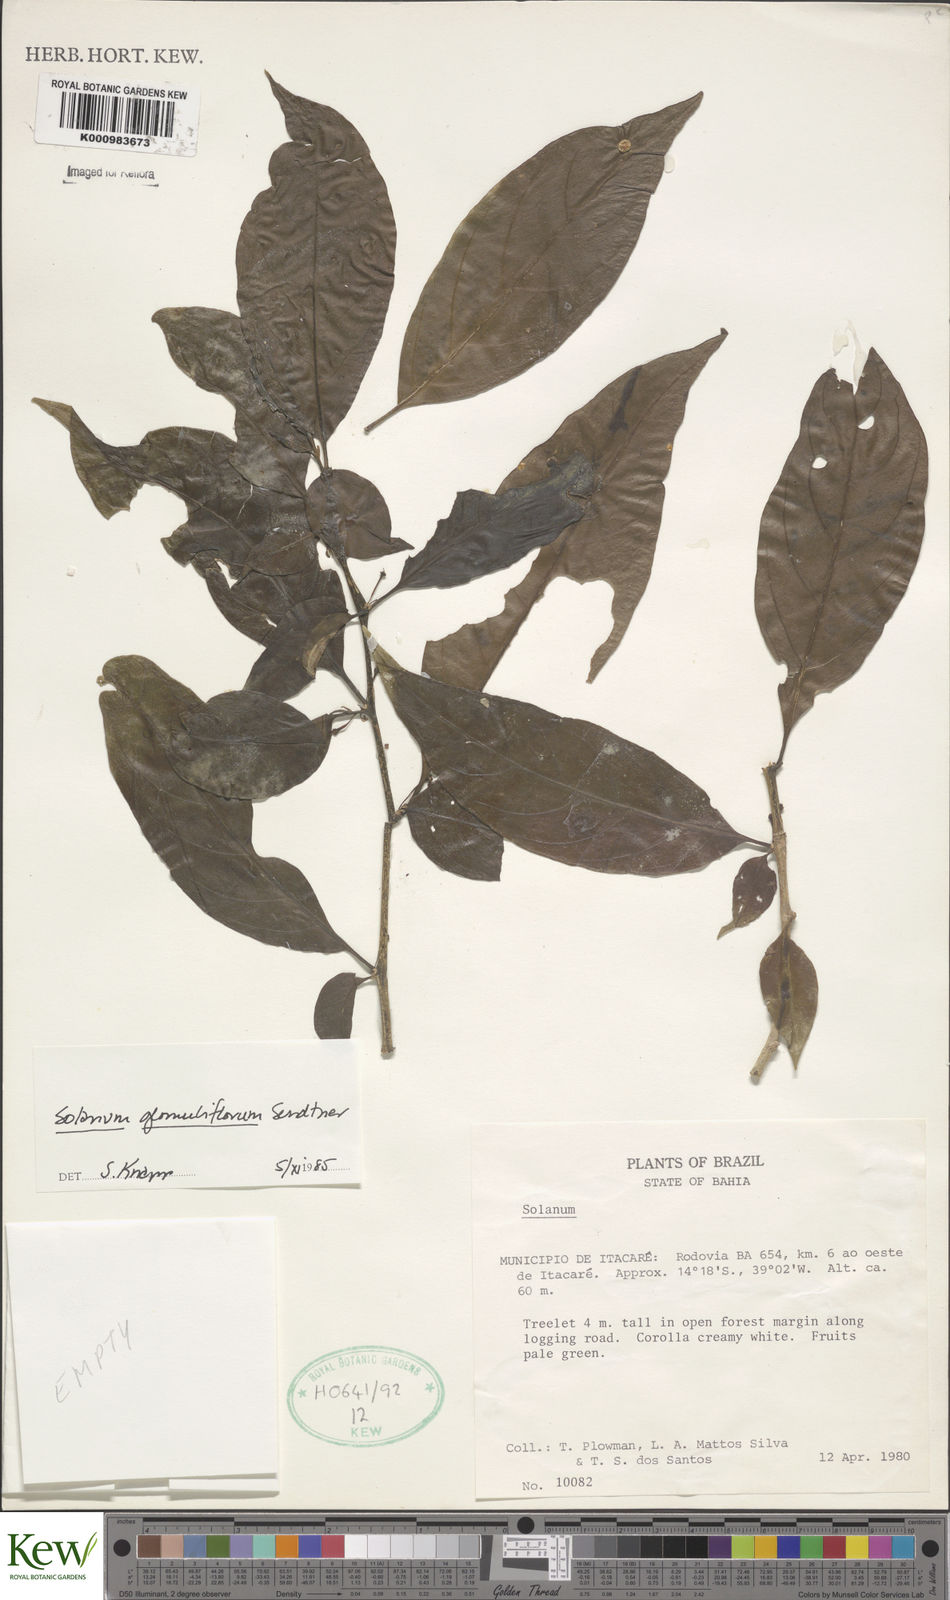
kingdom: Plantae
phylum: Tracheophyta
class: Magnoliopsida
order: Solanales
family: Solanaceae
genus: Solanum
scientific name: Solanum glomuliflorum
